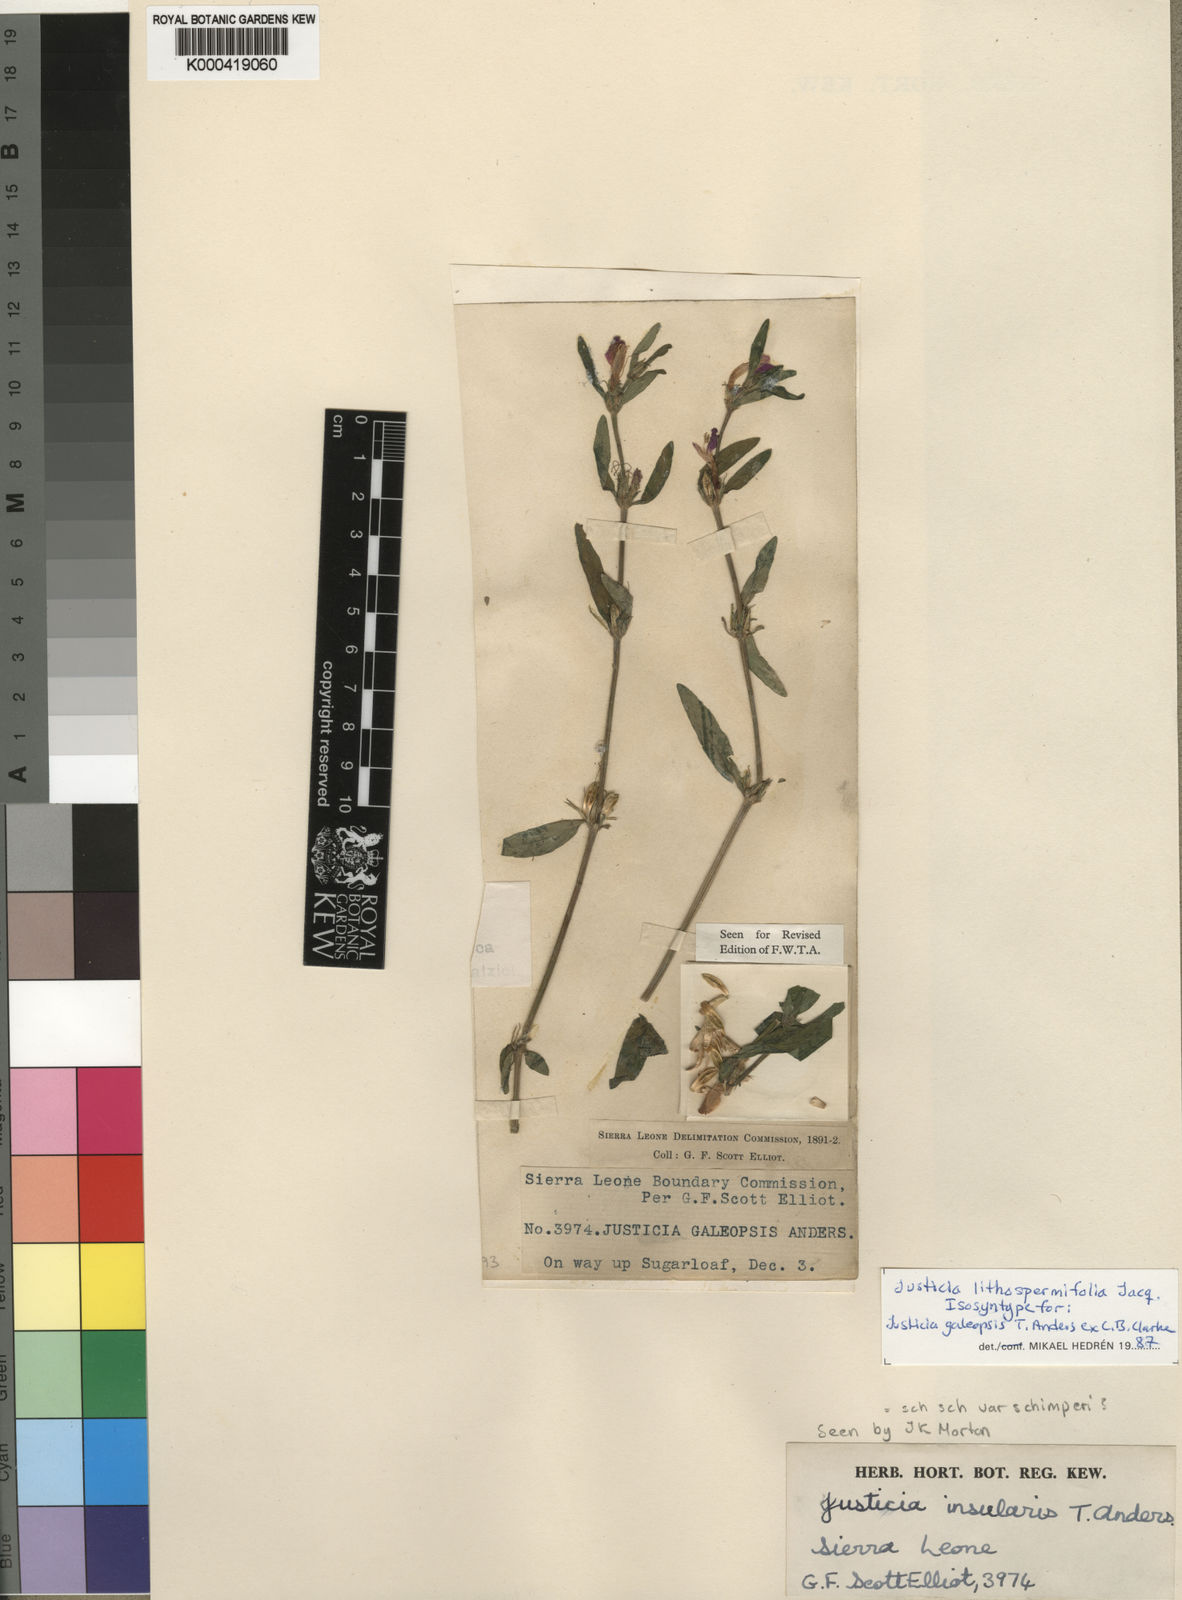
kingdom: Plantae
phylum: Tracheophyta
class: Magnoliopsida
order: Lamiales
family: Acanthaceae
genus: Justicia
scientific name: Justicia ladanoides
